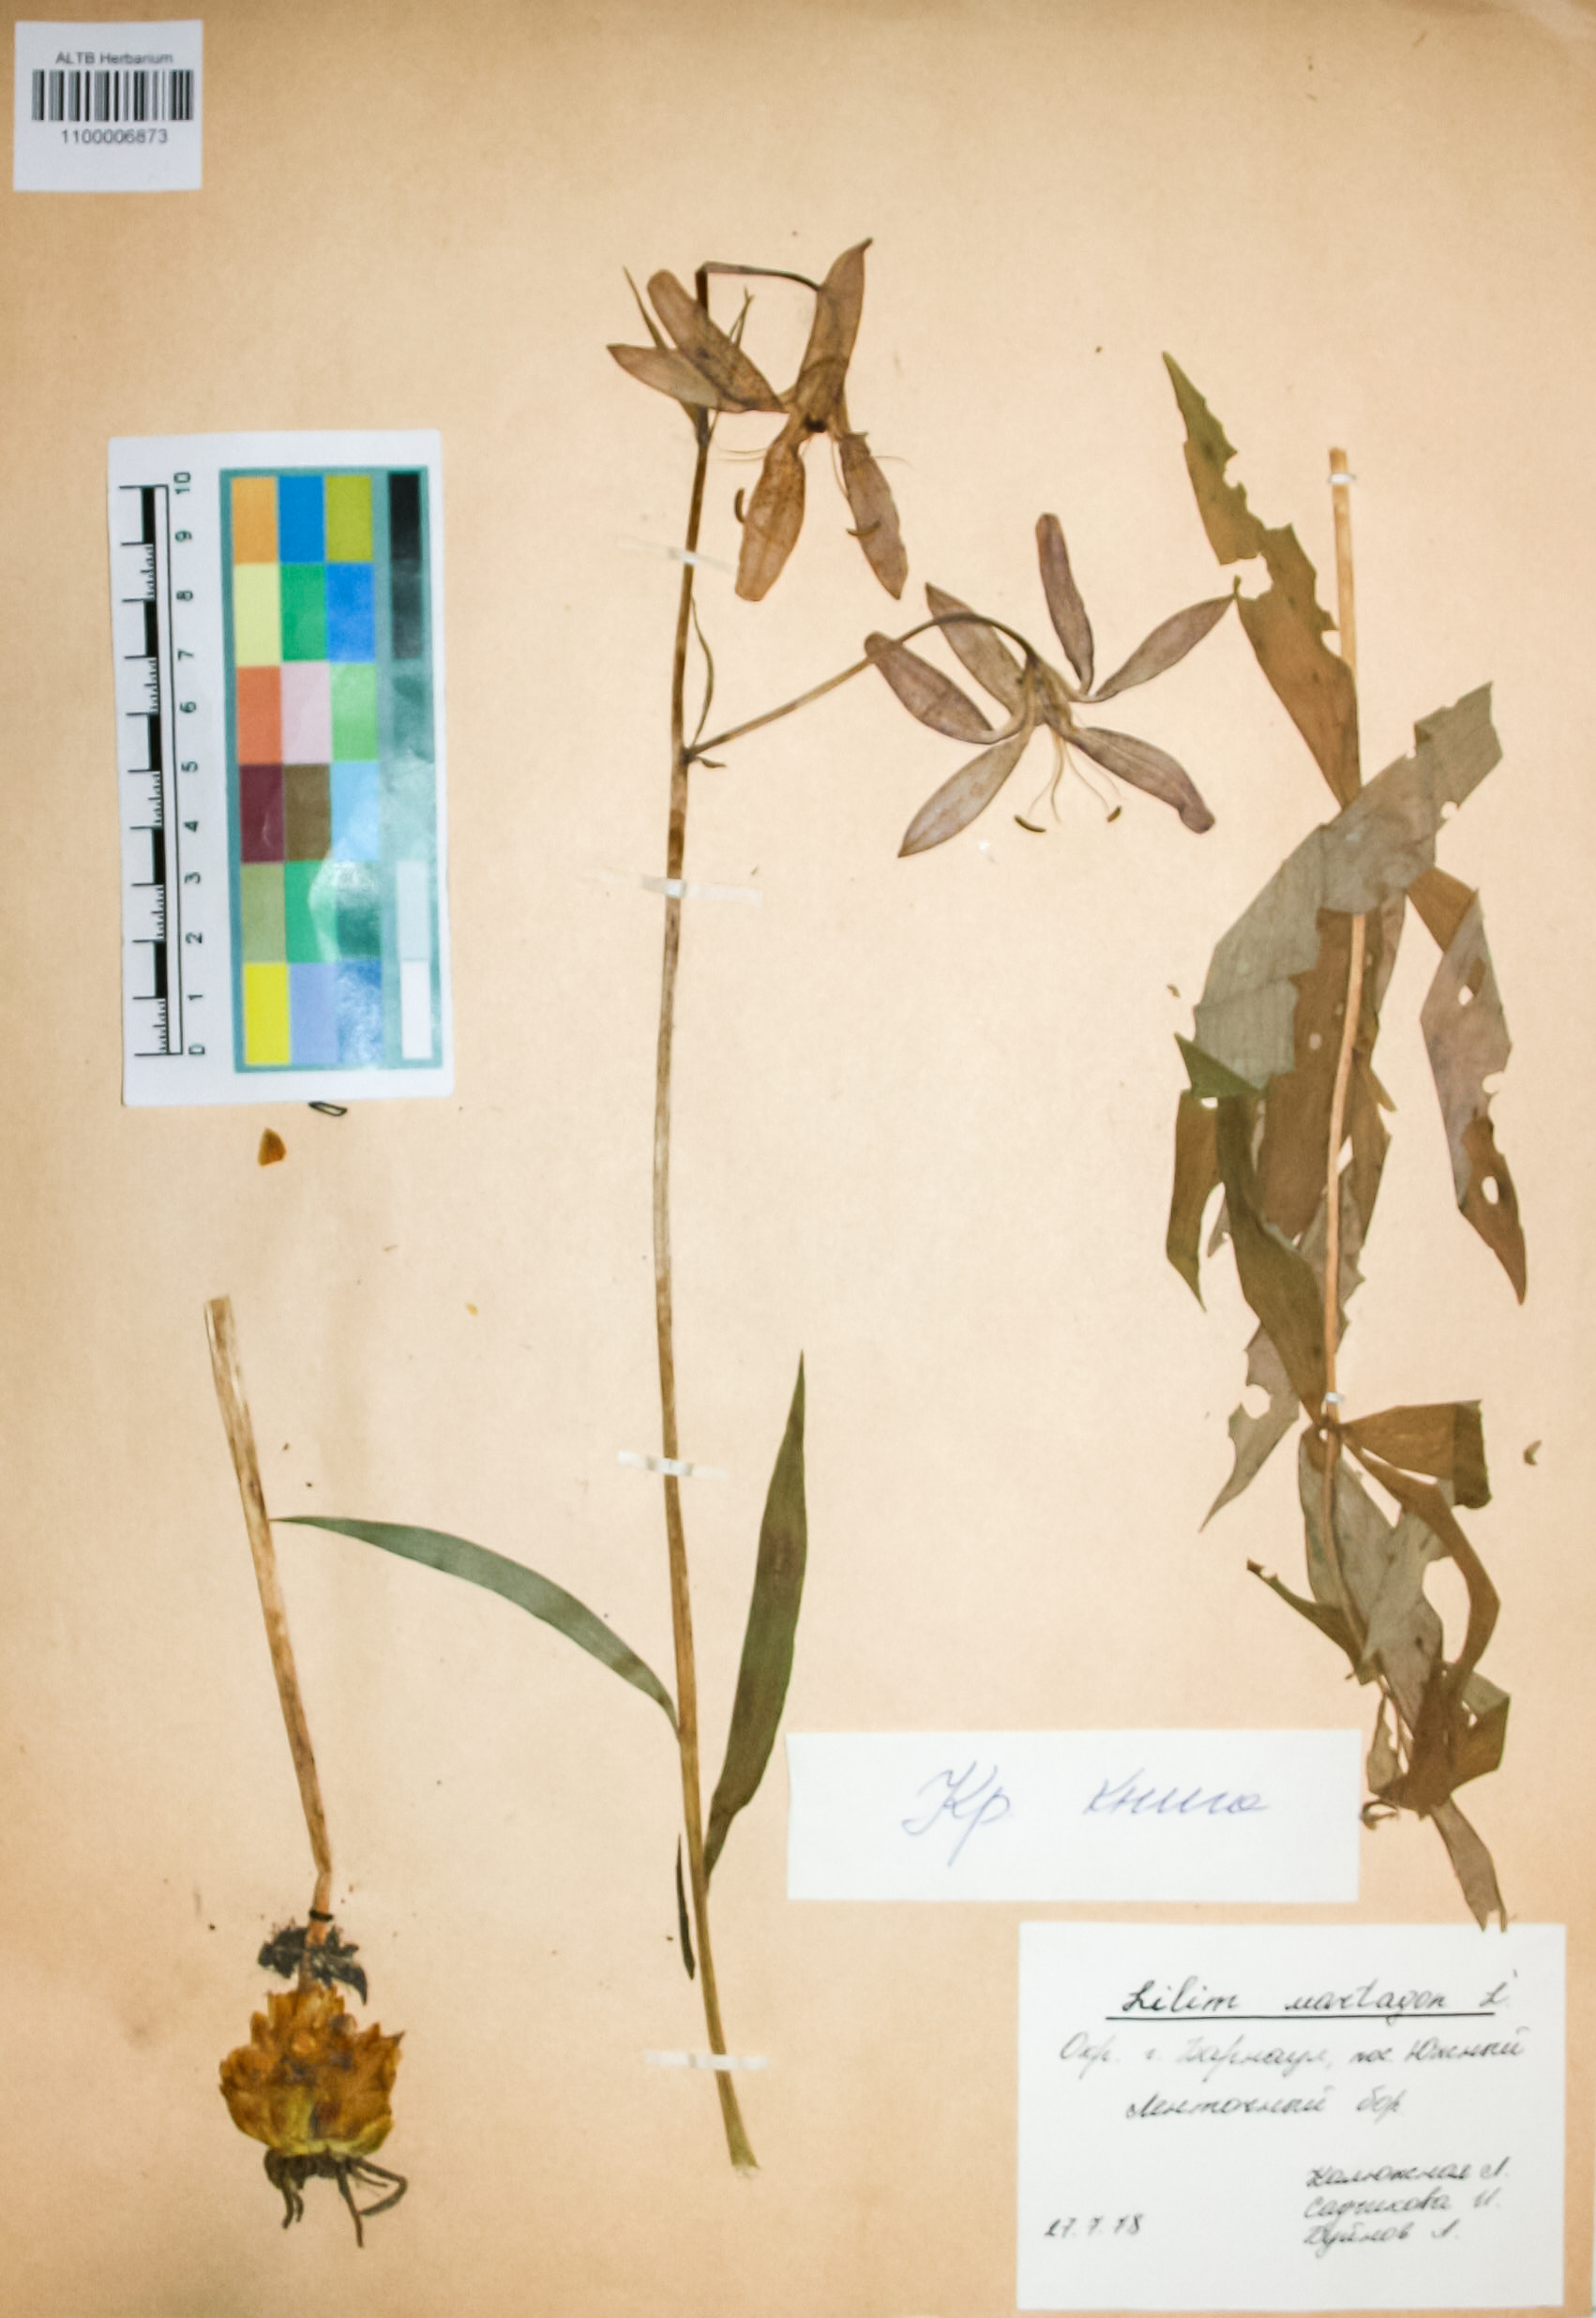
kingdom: Plantae
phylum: Tracheophyta
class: Liliopsida
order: Liliales
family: Liliaceae
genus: Lilium
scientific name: Lilium martagon
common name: Martagon lily
